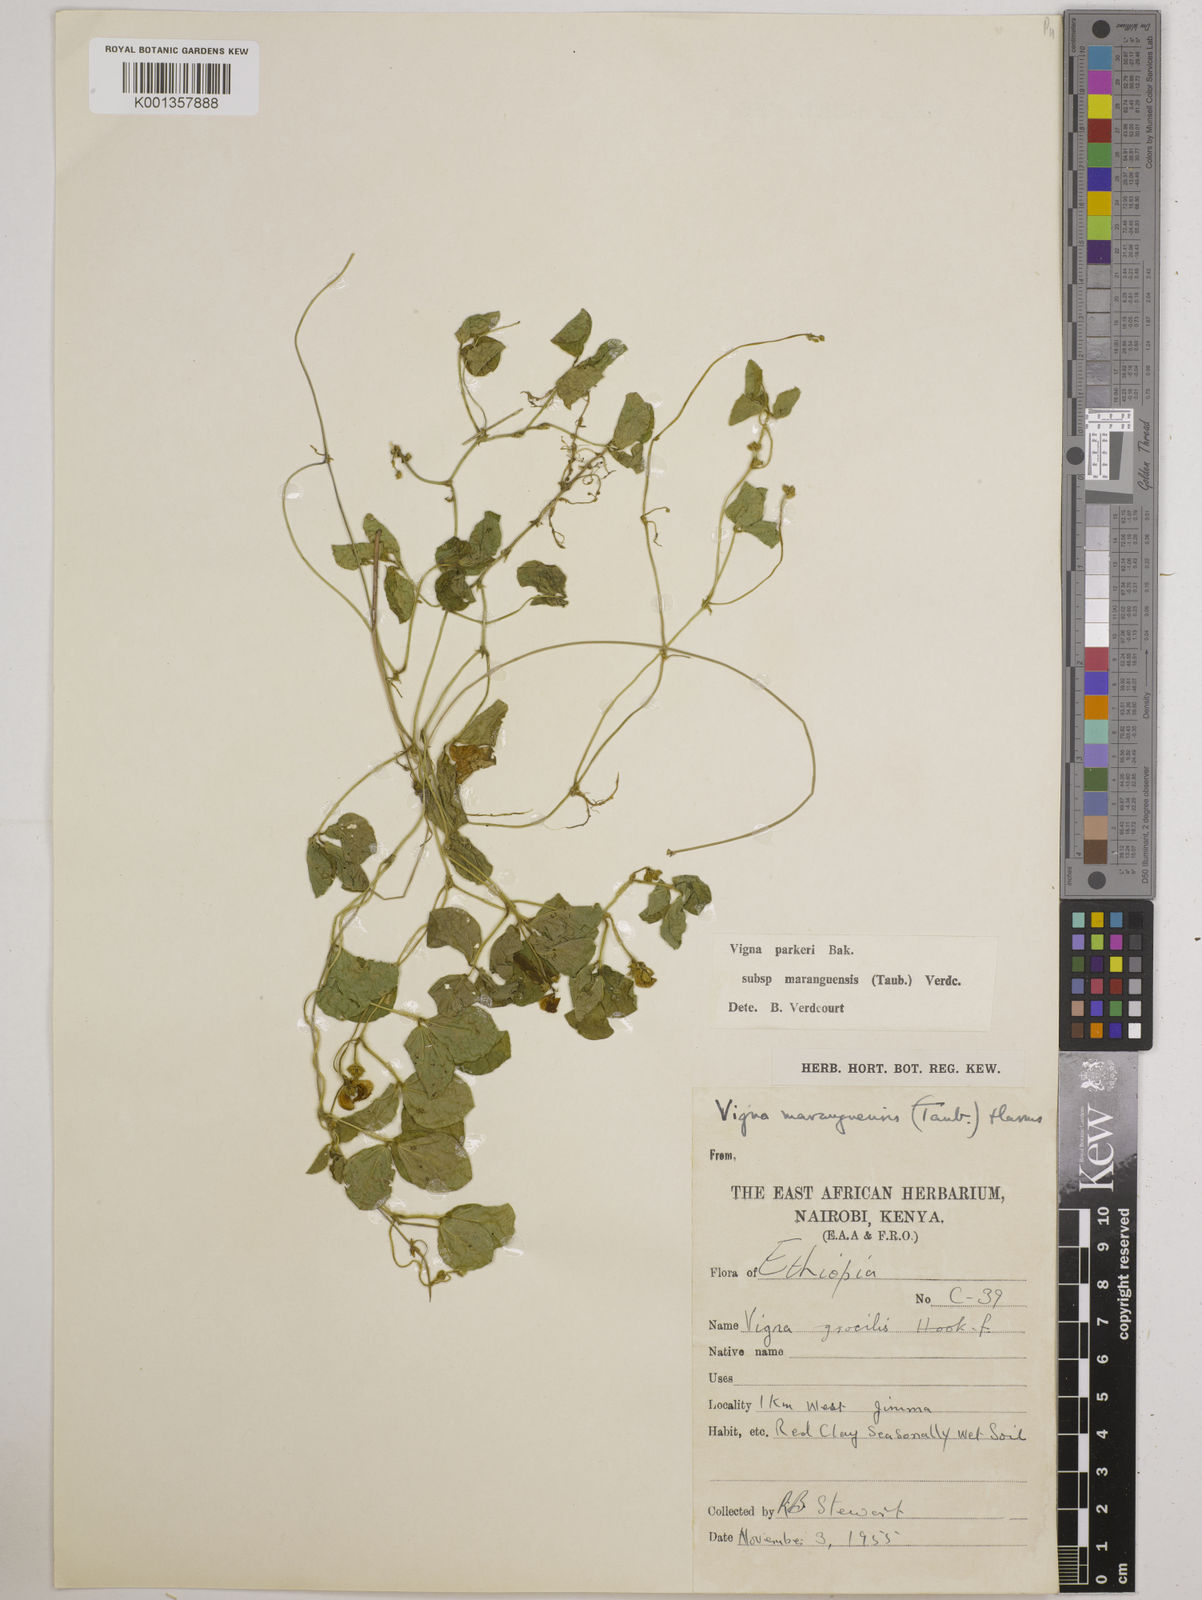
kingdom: Plantae
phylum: Tracheophyta
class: Magnoliopsida
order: Fabales
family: Fabaceae
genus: Vigna
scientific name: Vigna
